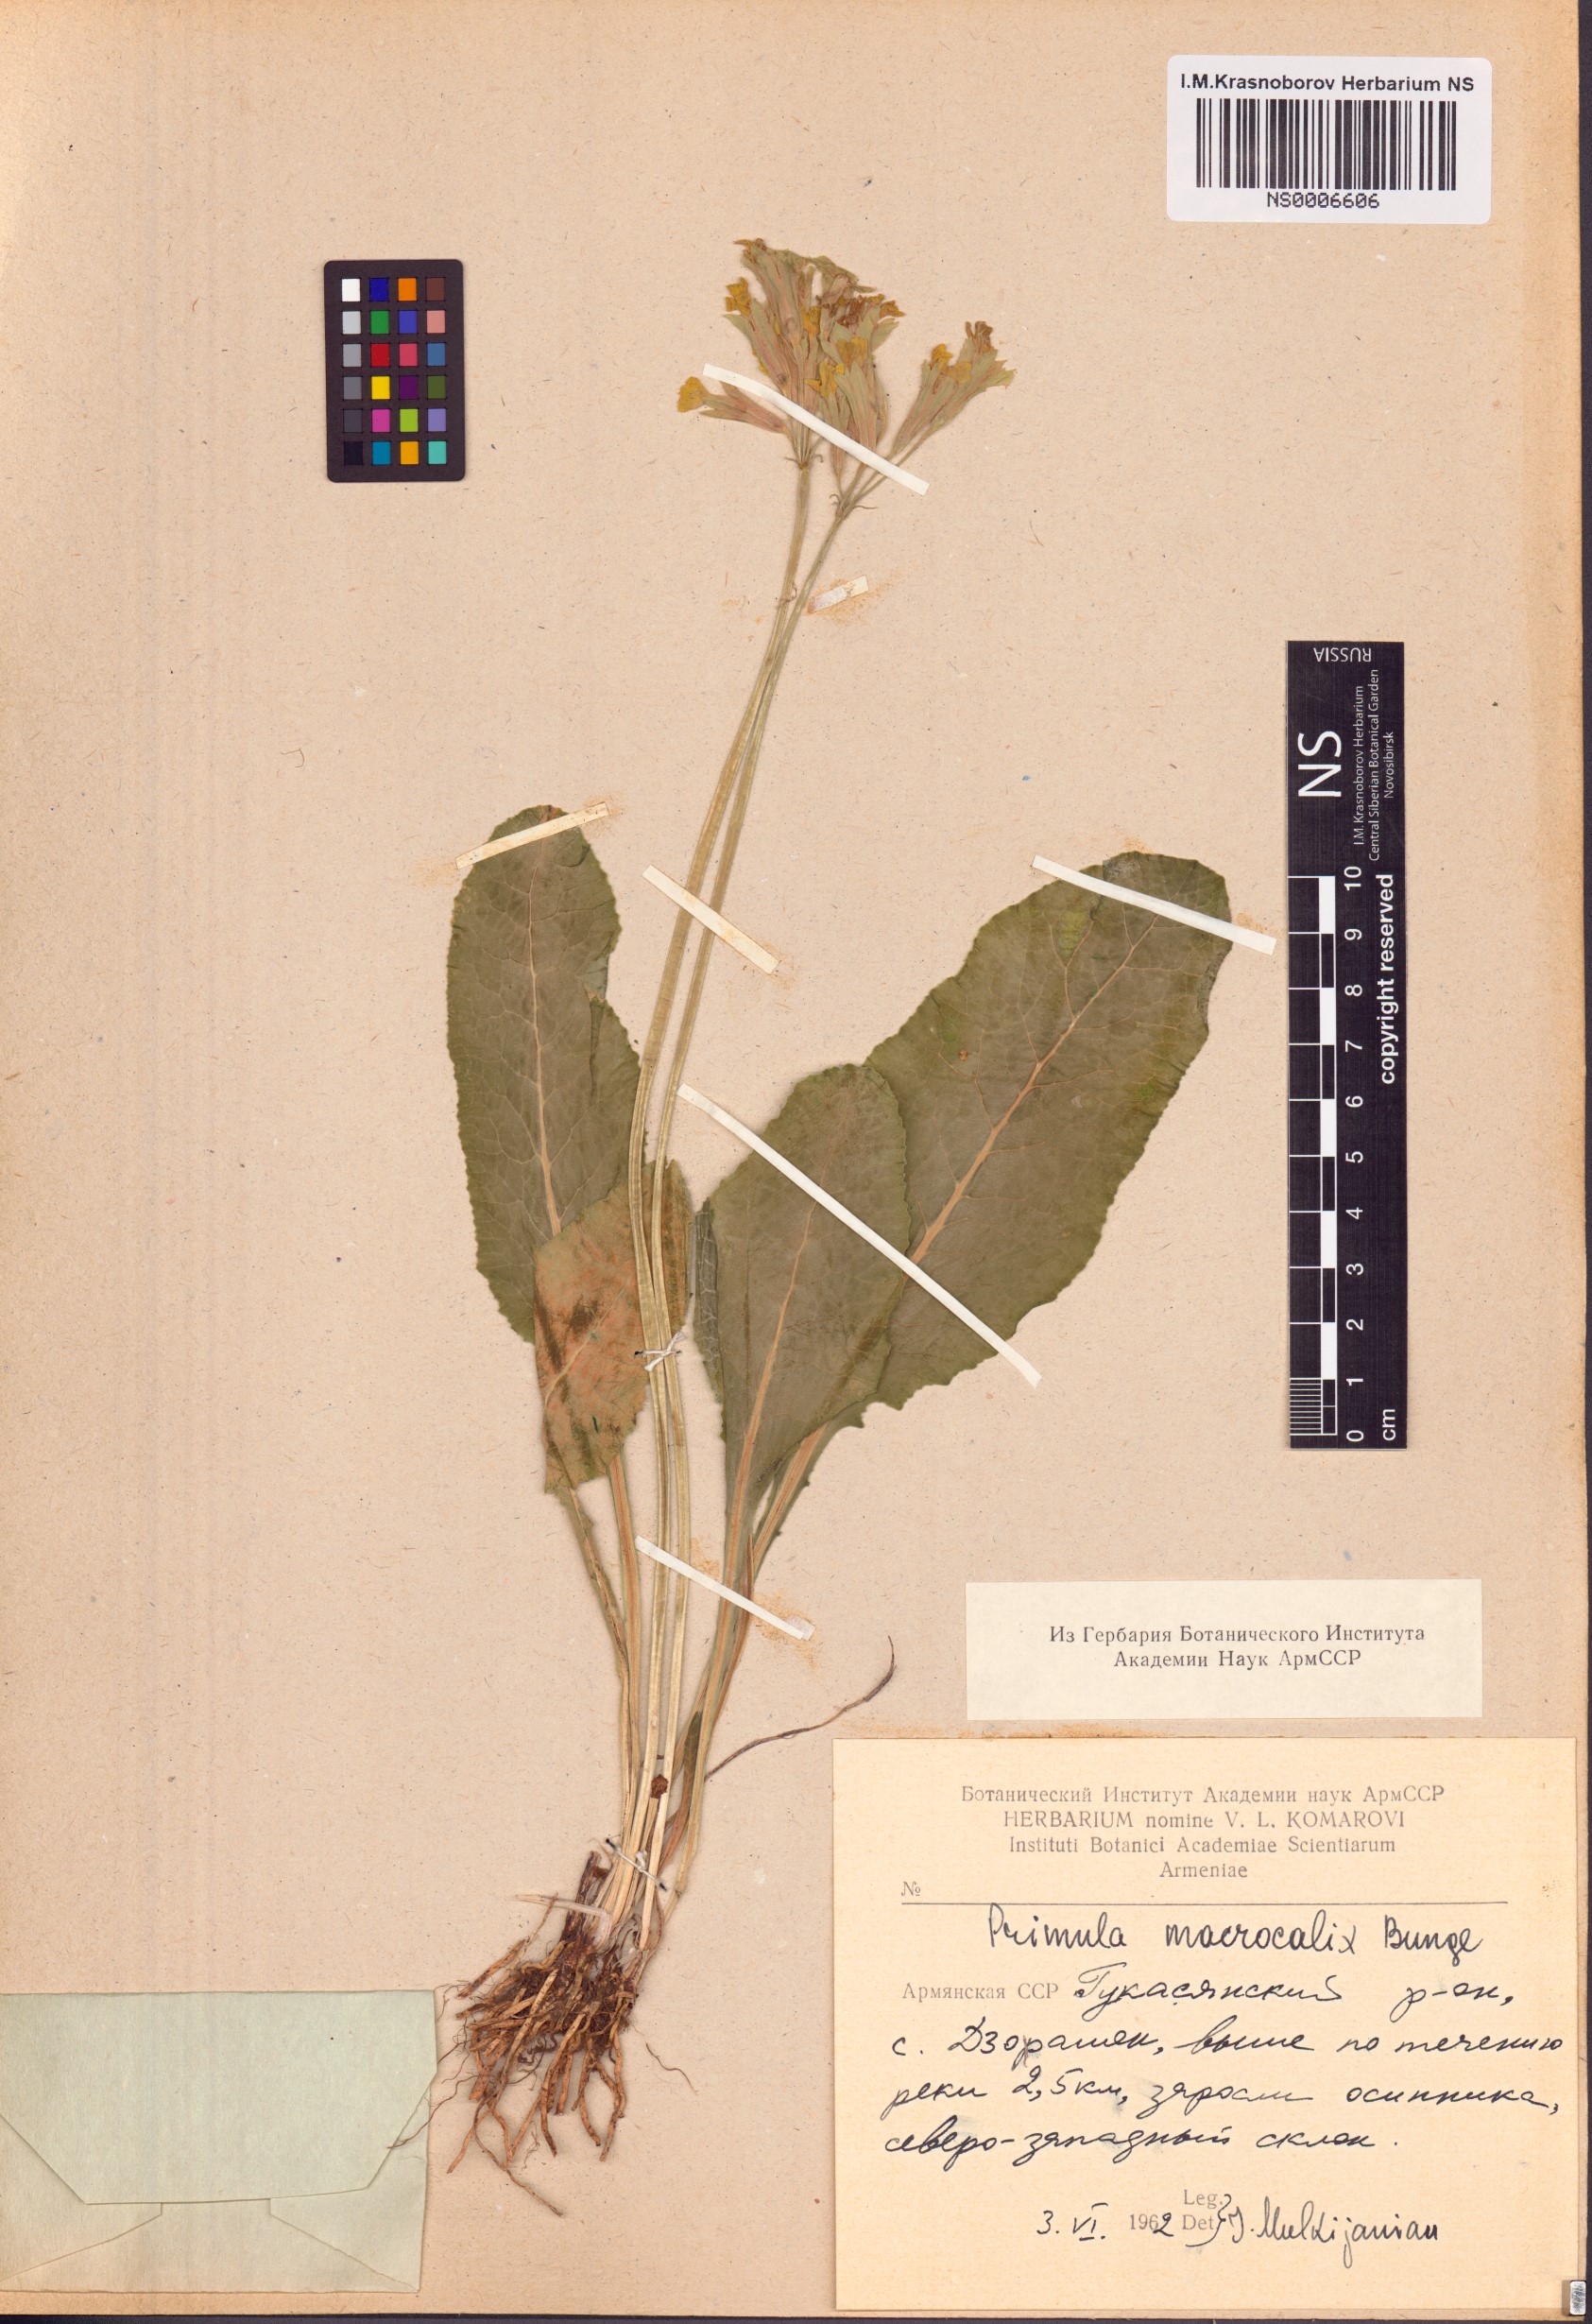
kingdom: Plantae
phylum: Tracheophyta
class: Magnoliopsida
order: Ericales
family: Primulaceae
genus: Primula
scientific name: Primula veris
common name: Cowslip
